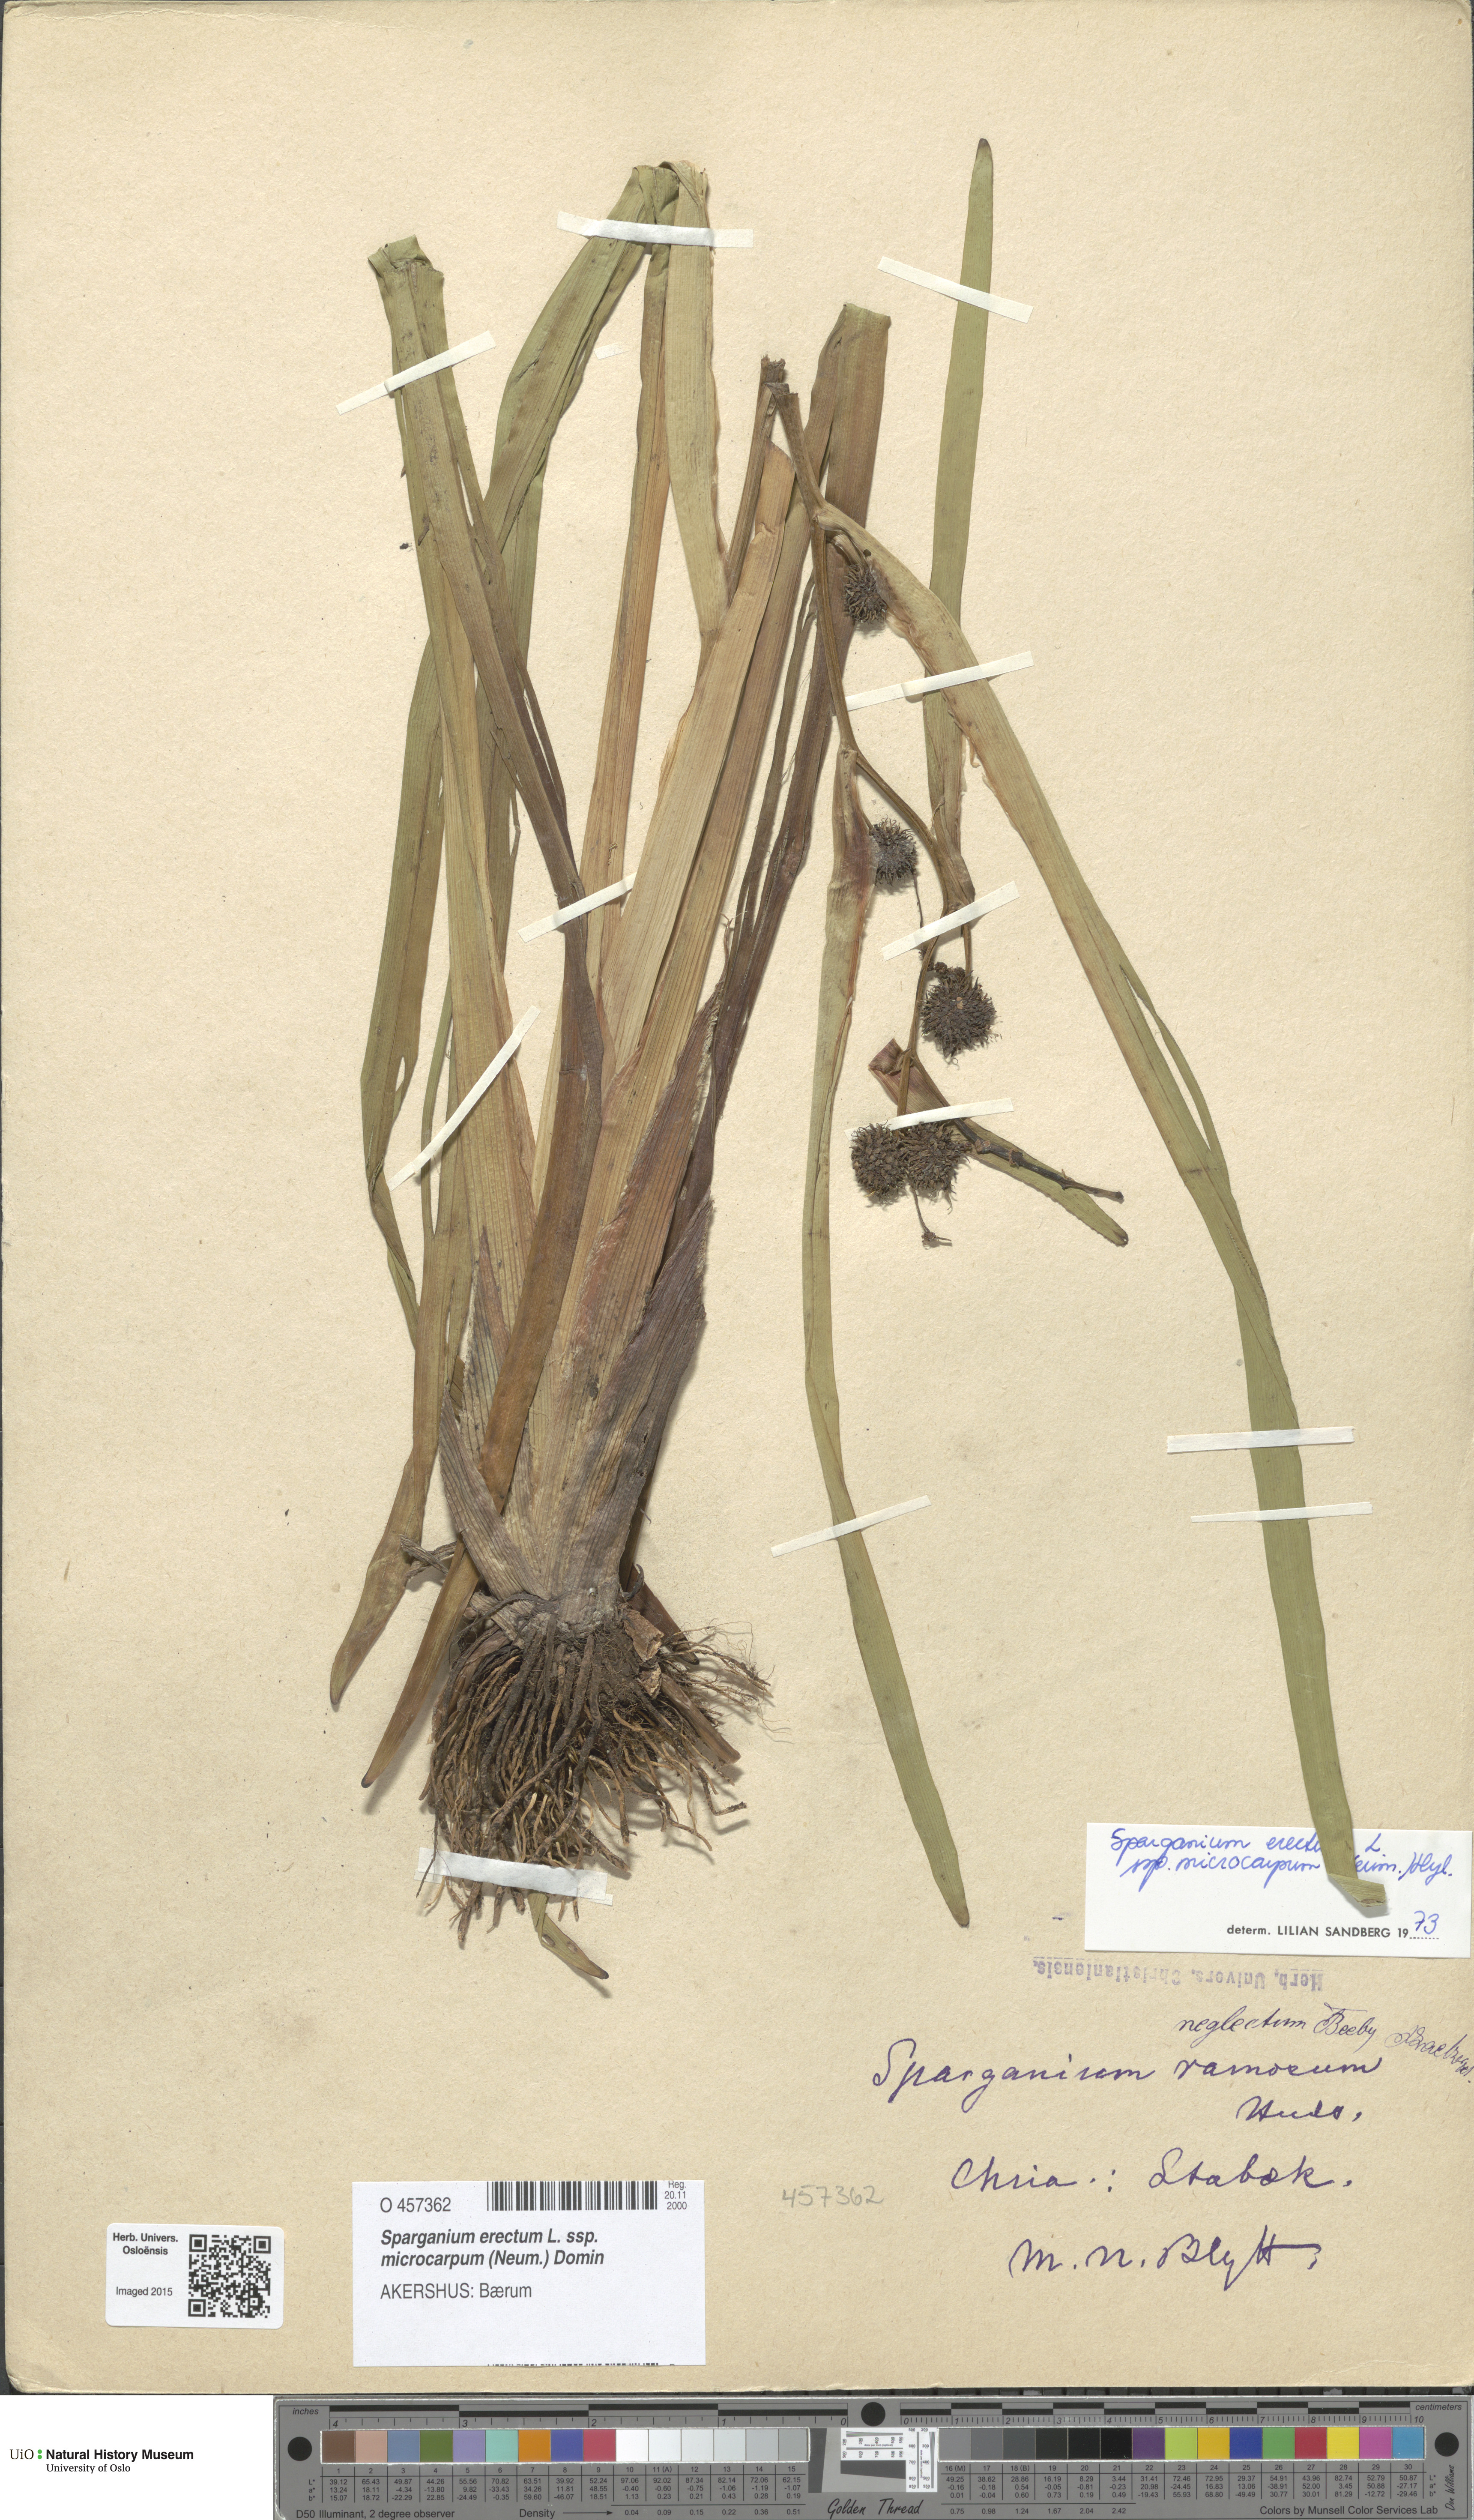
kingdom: Plantae
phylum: Tracheophyta
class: Liliopsida
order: Poales
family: Typhaceae
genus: Sparganium
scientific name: Sparganium erectum
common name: Branched bur-reed
